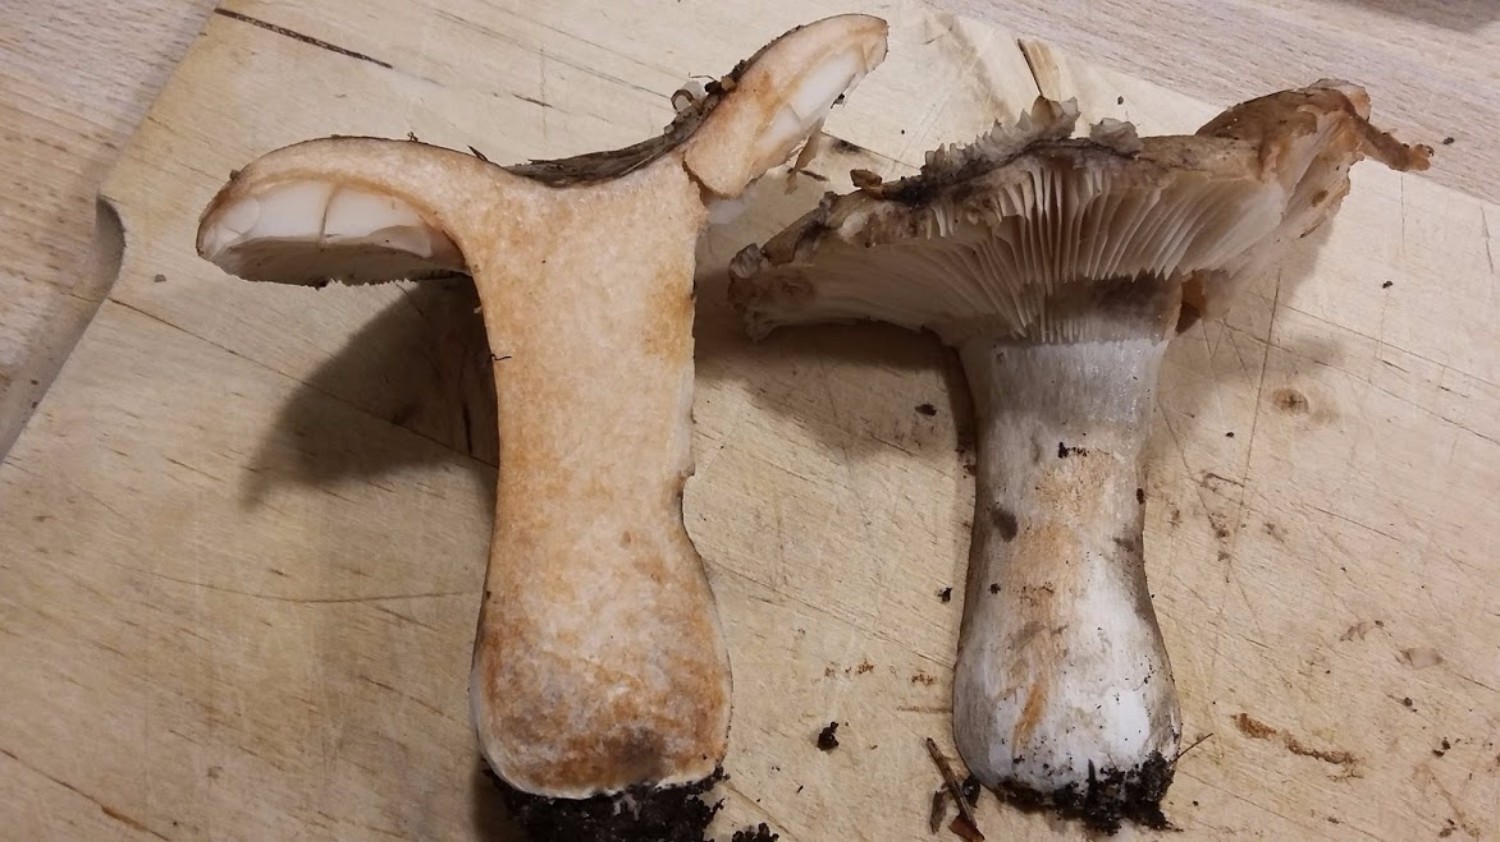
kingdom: Fungi
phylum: Basidiomycota
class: Agaricomycetes
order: Russulales
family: Russulaceae
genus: Russula
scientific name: Russula acrifolia
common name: skarpbladet skørhat
